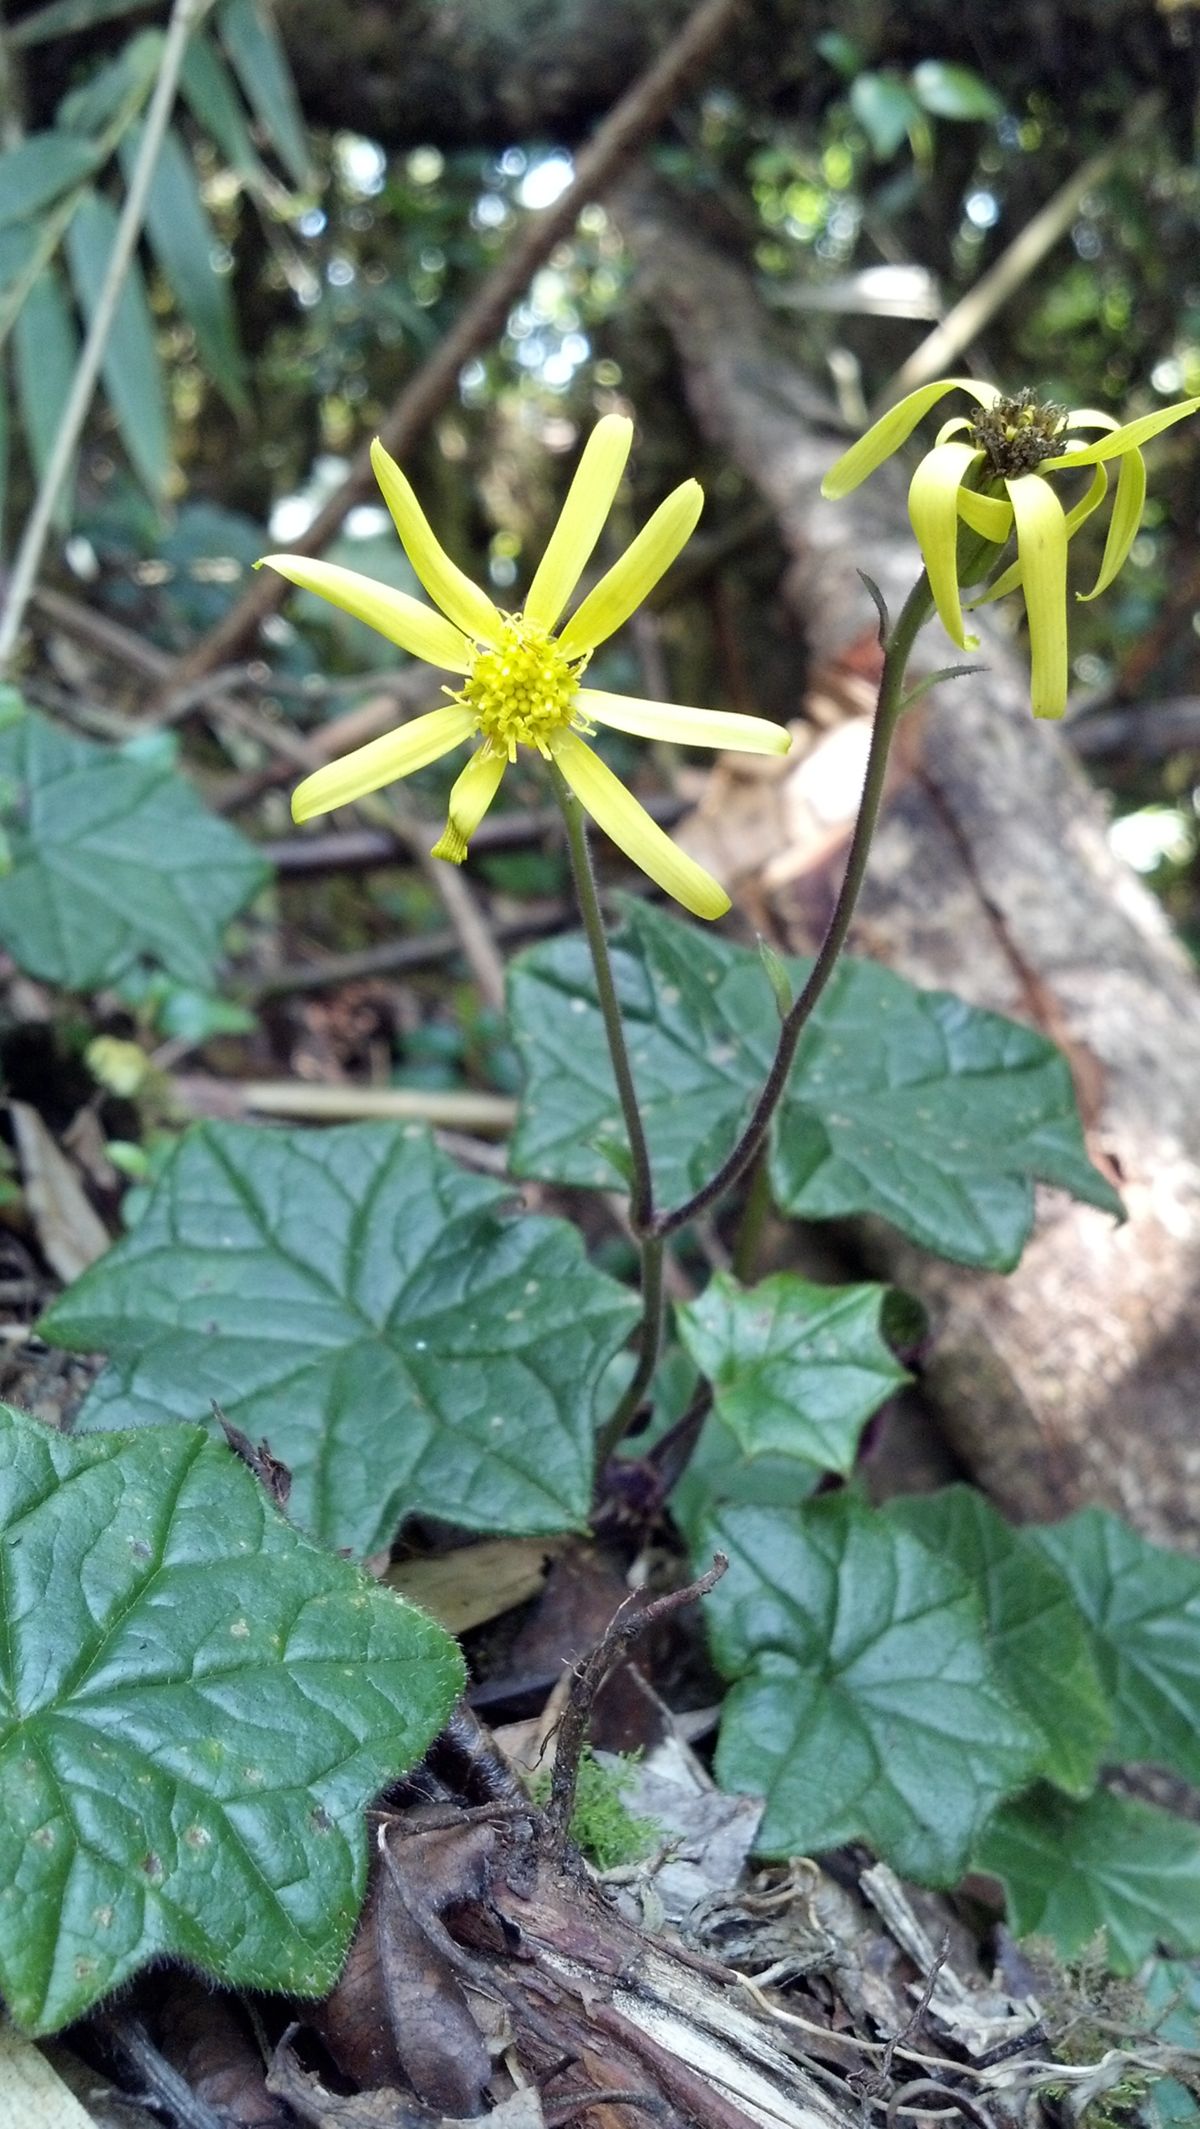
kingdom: Plantae
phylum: Tracheophyta
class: Magnoliopsida
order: Asterales
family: Asteraceae
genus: Psacaliopsis
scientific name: Psacaliopsis
